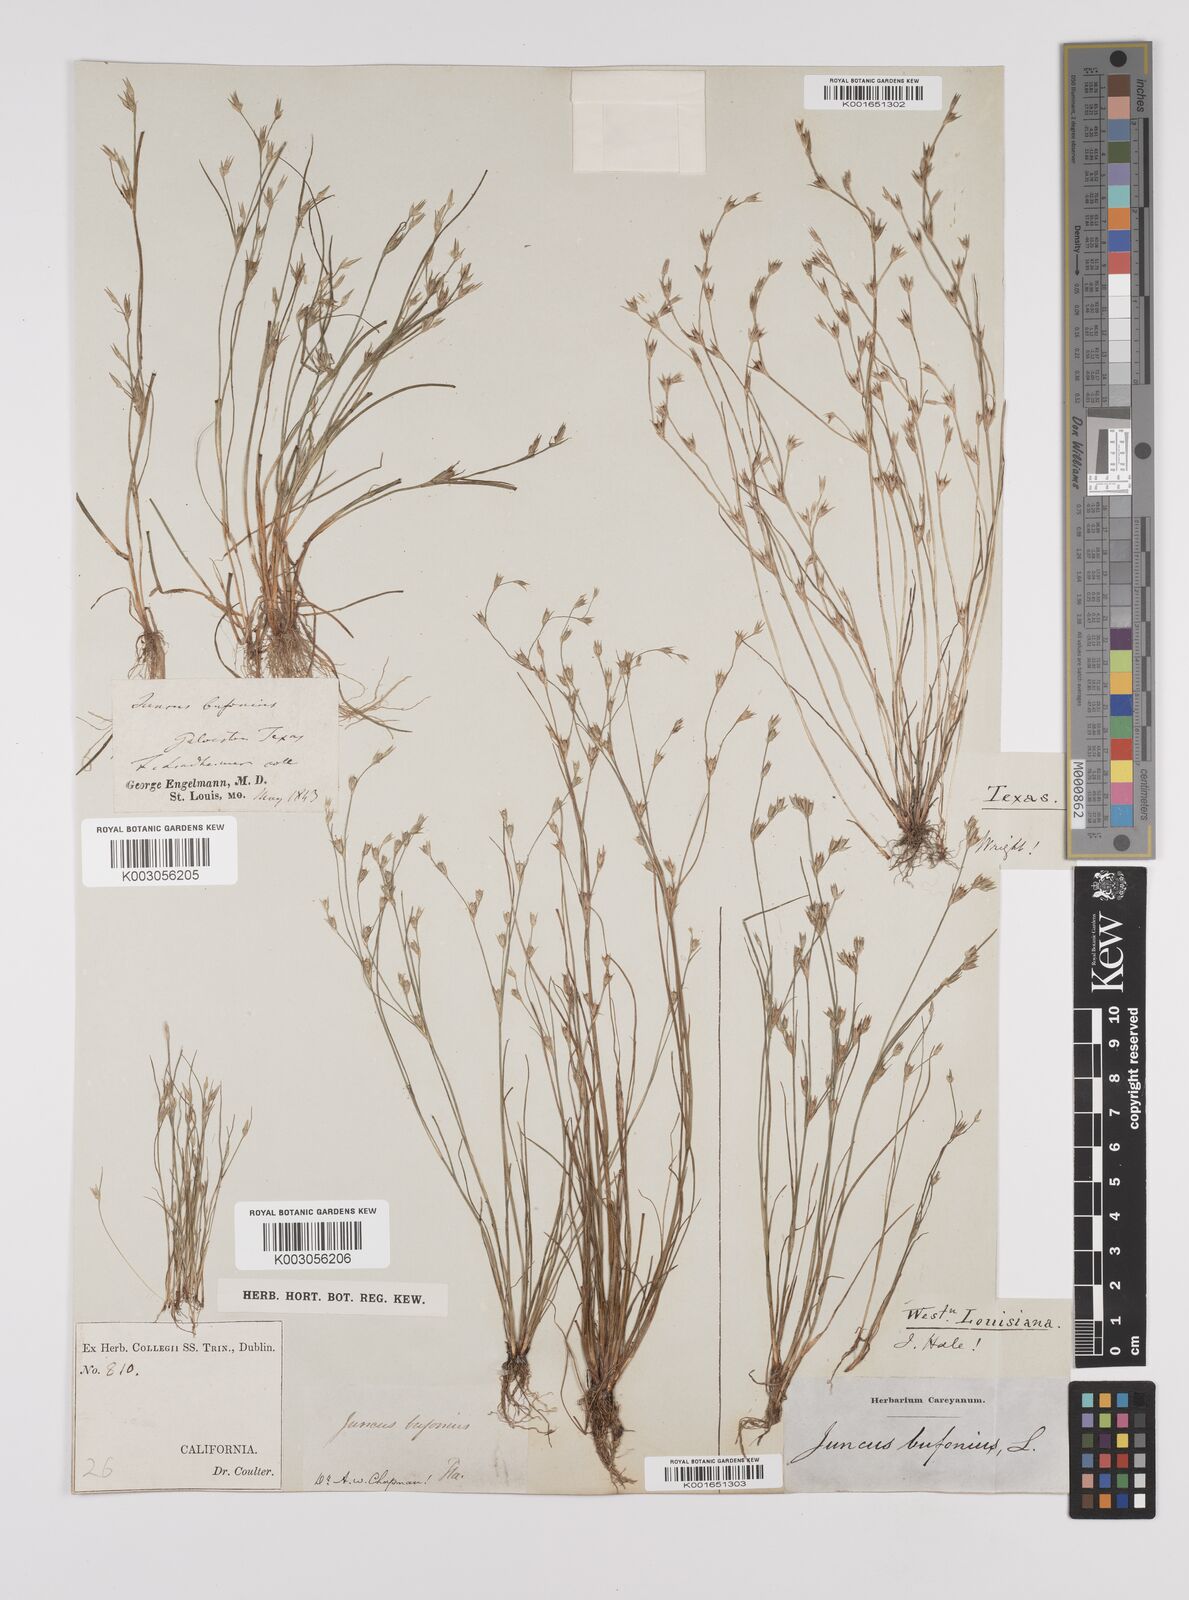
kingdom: Plantae
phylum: Tracheophyta
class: Liliopsida
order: Poales
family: Juncaceae
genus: Juncus
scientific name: Juncus bufonius
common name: Toad rush
